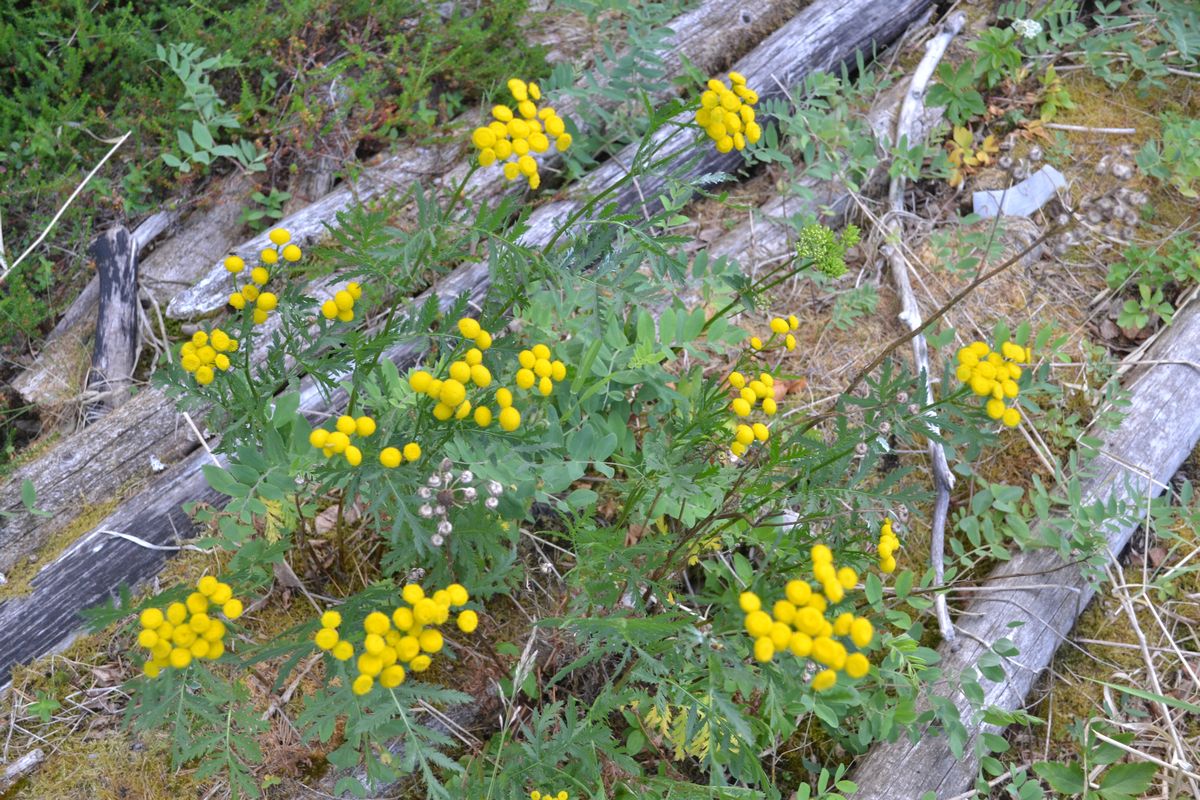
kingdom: Plantae
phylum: Tracheophyta
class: Magnoliopsida
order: Asterales
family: Asteraceae
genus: Tanacetum
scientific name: Tanacetum vulgare
